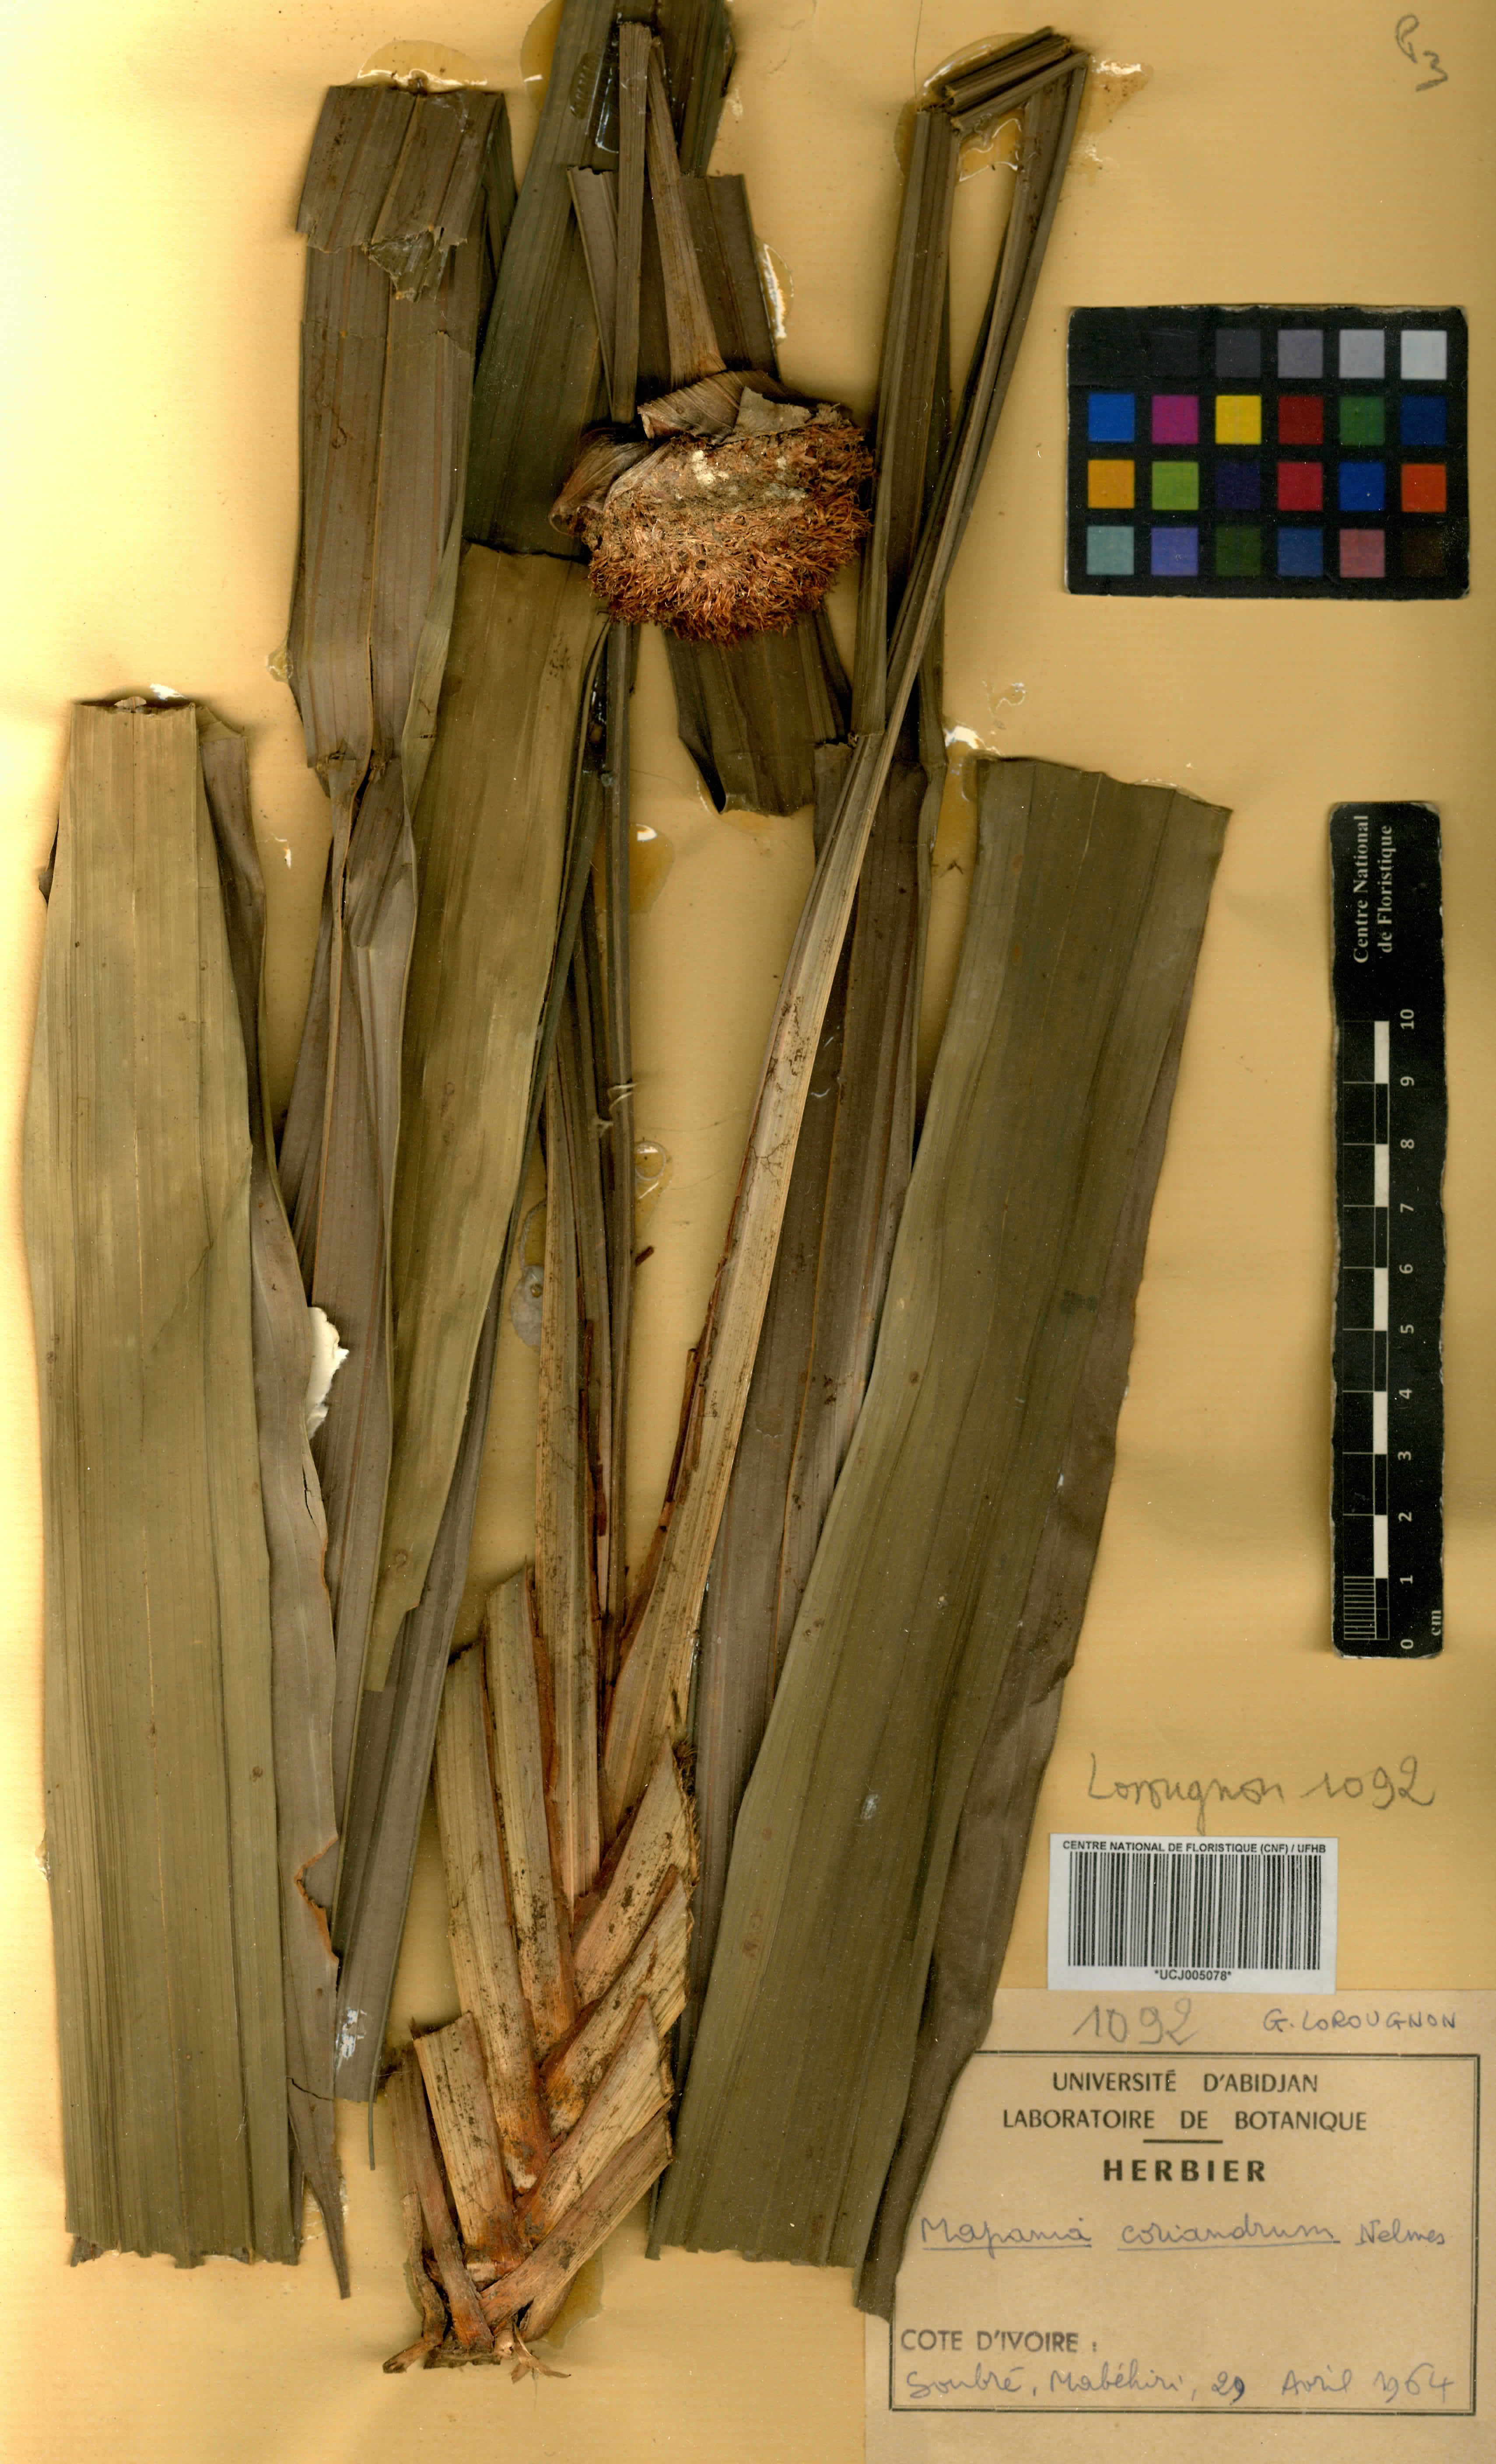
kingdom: Plantae
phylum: Tracheophyta
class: Liliopsida
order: Poales
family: Cyperaceae
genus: Mapania
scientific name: Mapania coriandrum
